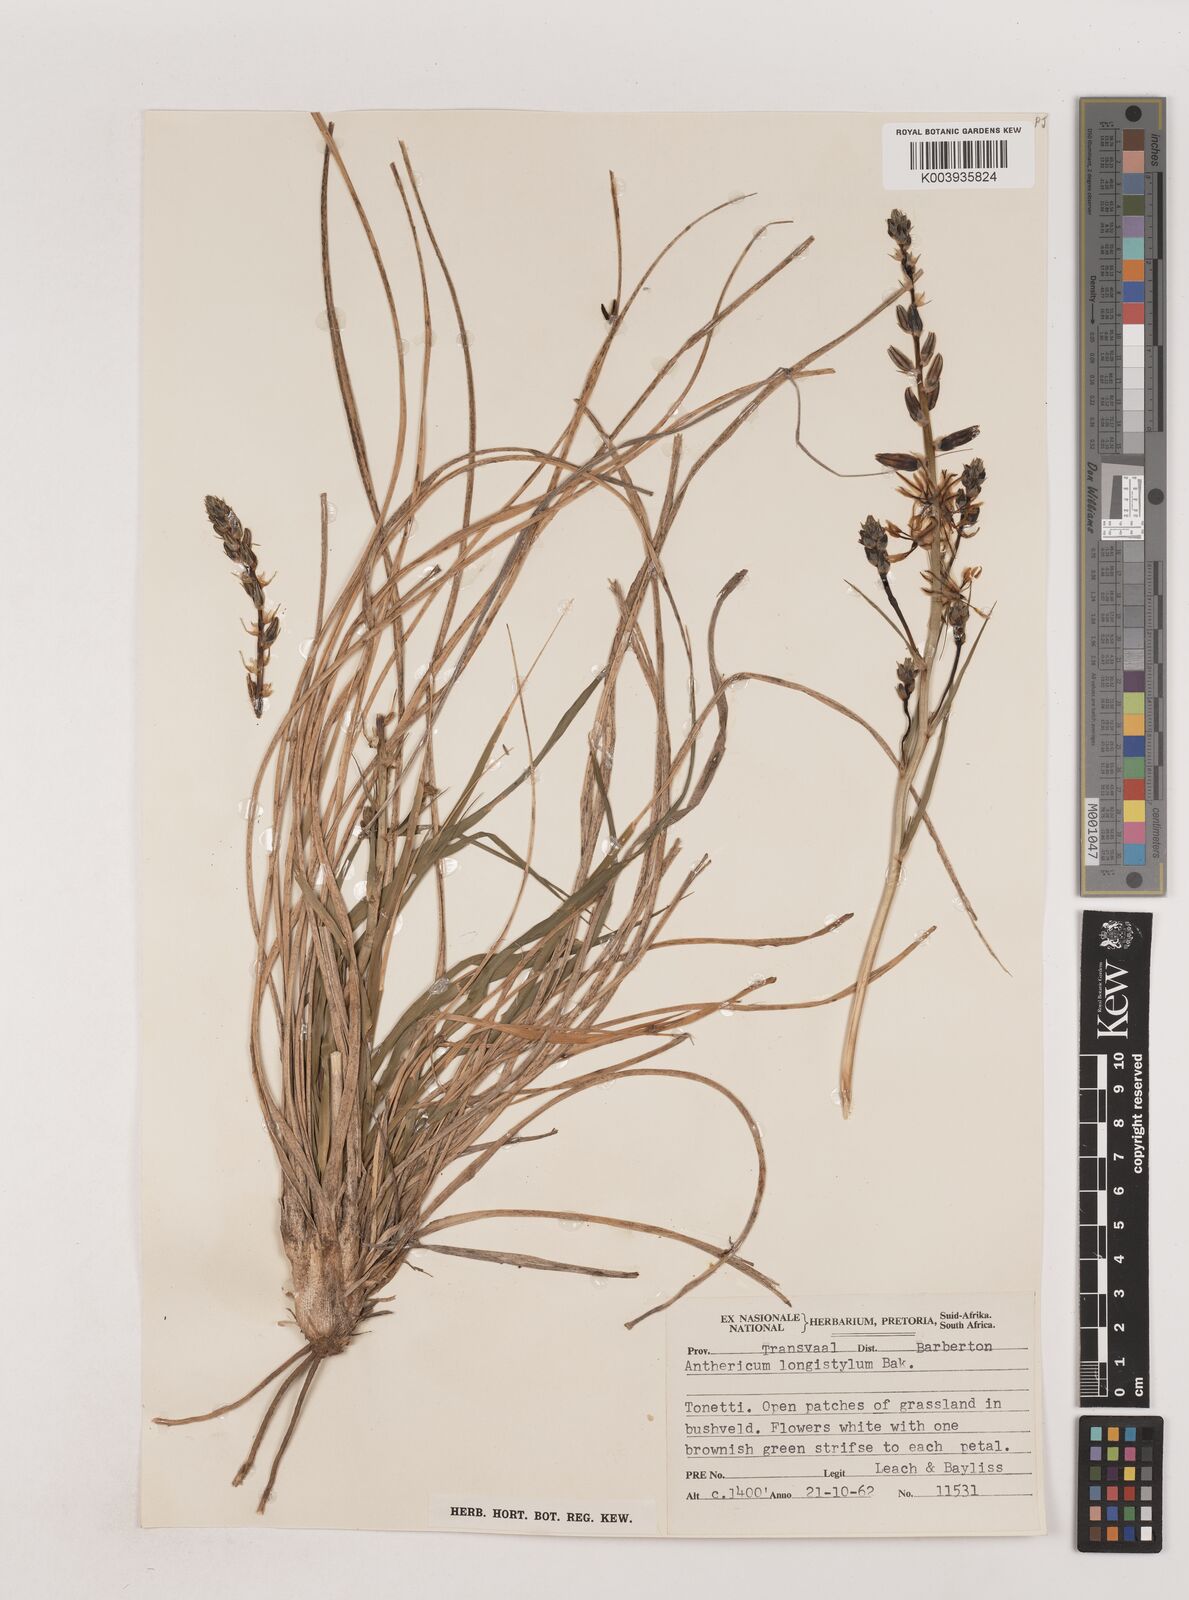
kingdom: Plantae
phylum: Tracheophyta
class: Liliopsida
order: Asparagales
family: Asparagaceae
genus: Chlorophytum
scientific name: Chlorophytum recurvifolium
